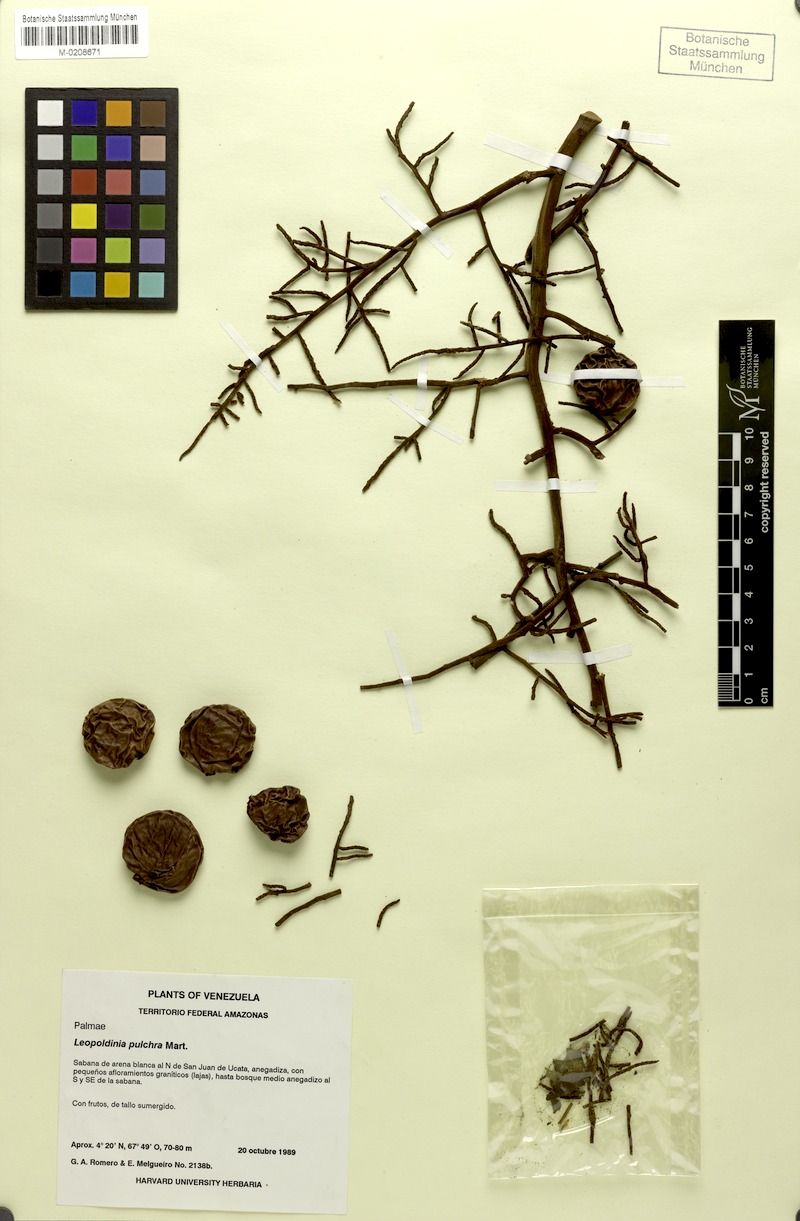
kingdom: Plantae
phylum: Tracheophyta
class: Liliopsida
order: Arecales
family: Arecaceae
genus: Leopoldinia
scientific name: Leopoldinia pulchra
